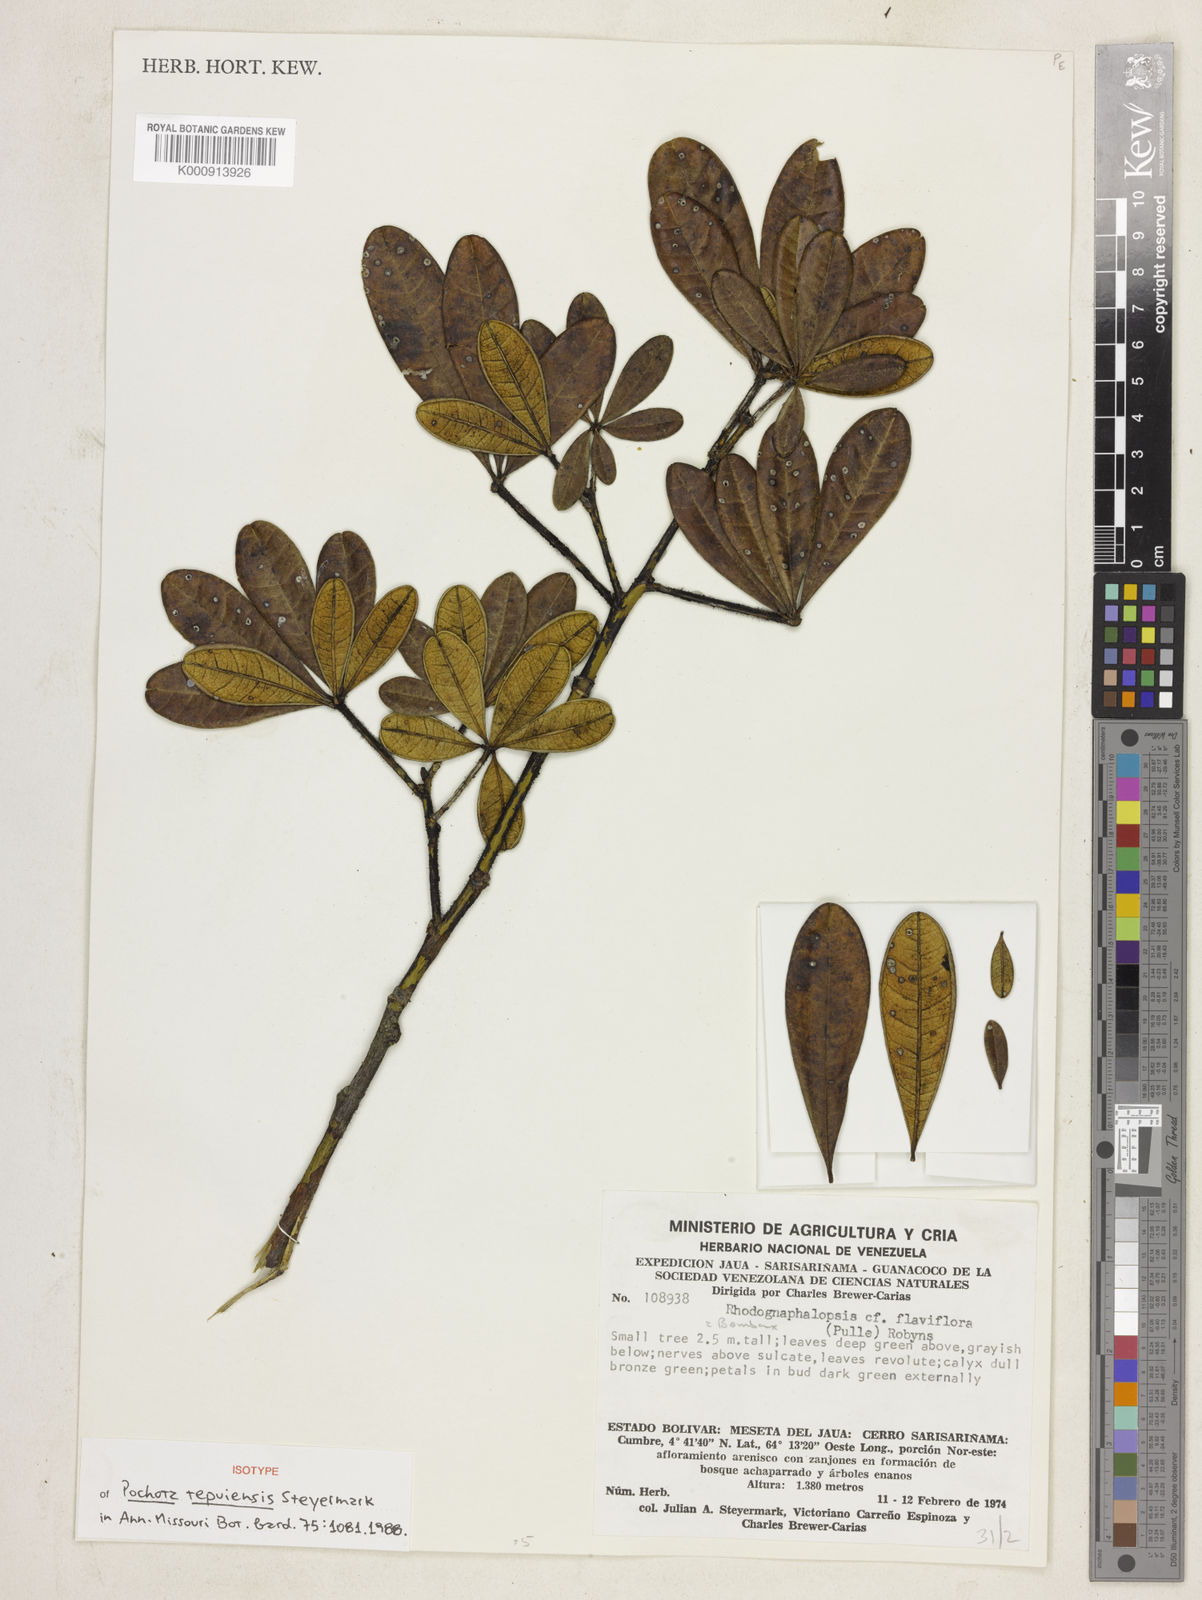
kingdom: Plantae
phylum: Tracheophyta
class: Magnoliopsida
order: Malvales
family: Malvaceae
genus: Pachira
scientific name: Pachira tepuiensis
